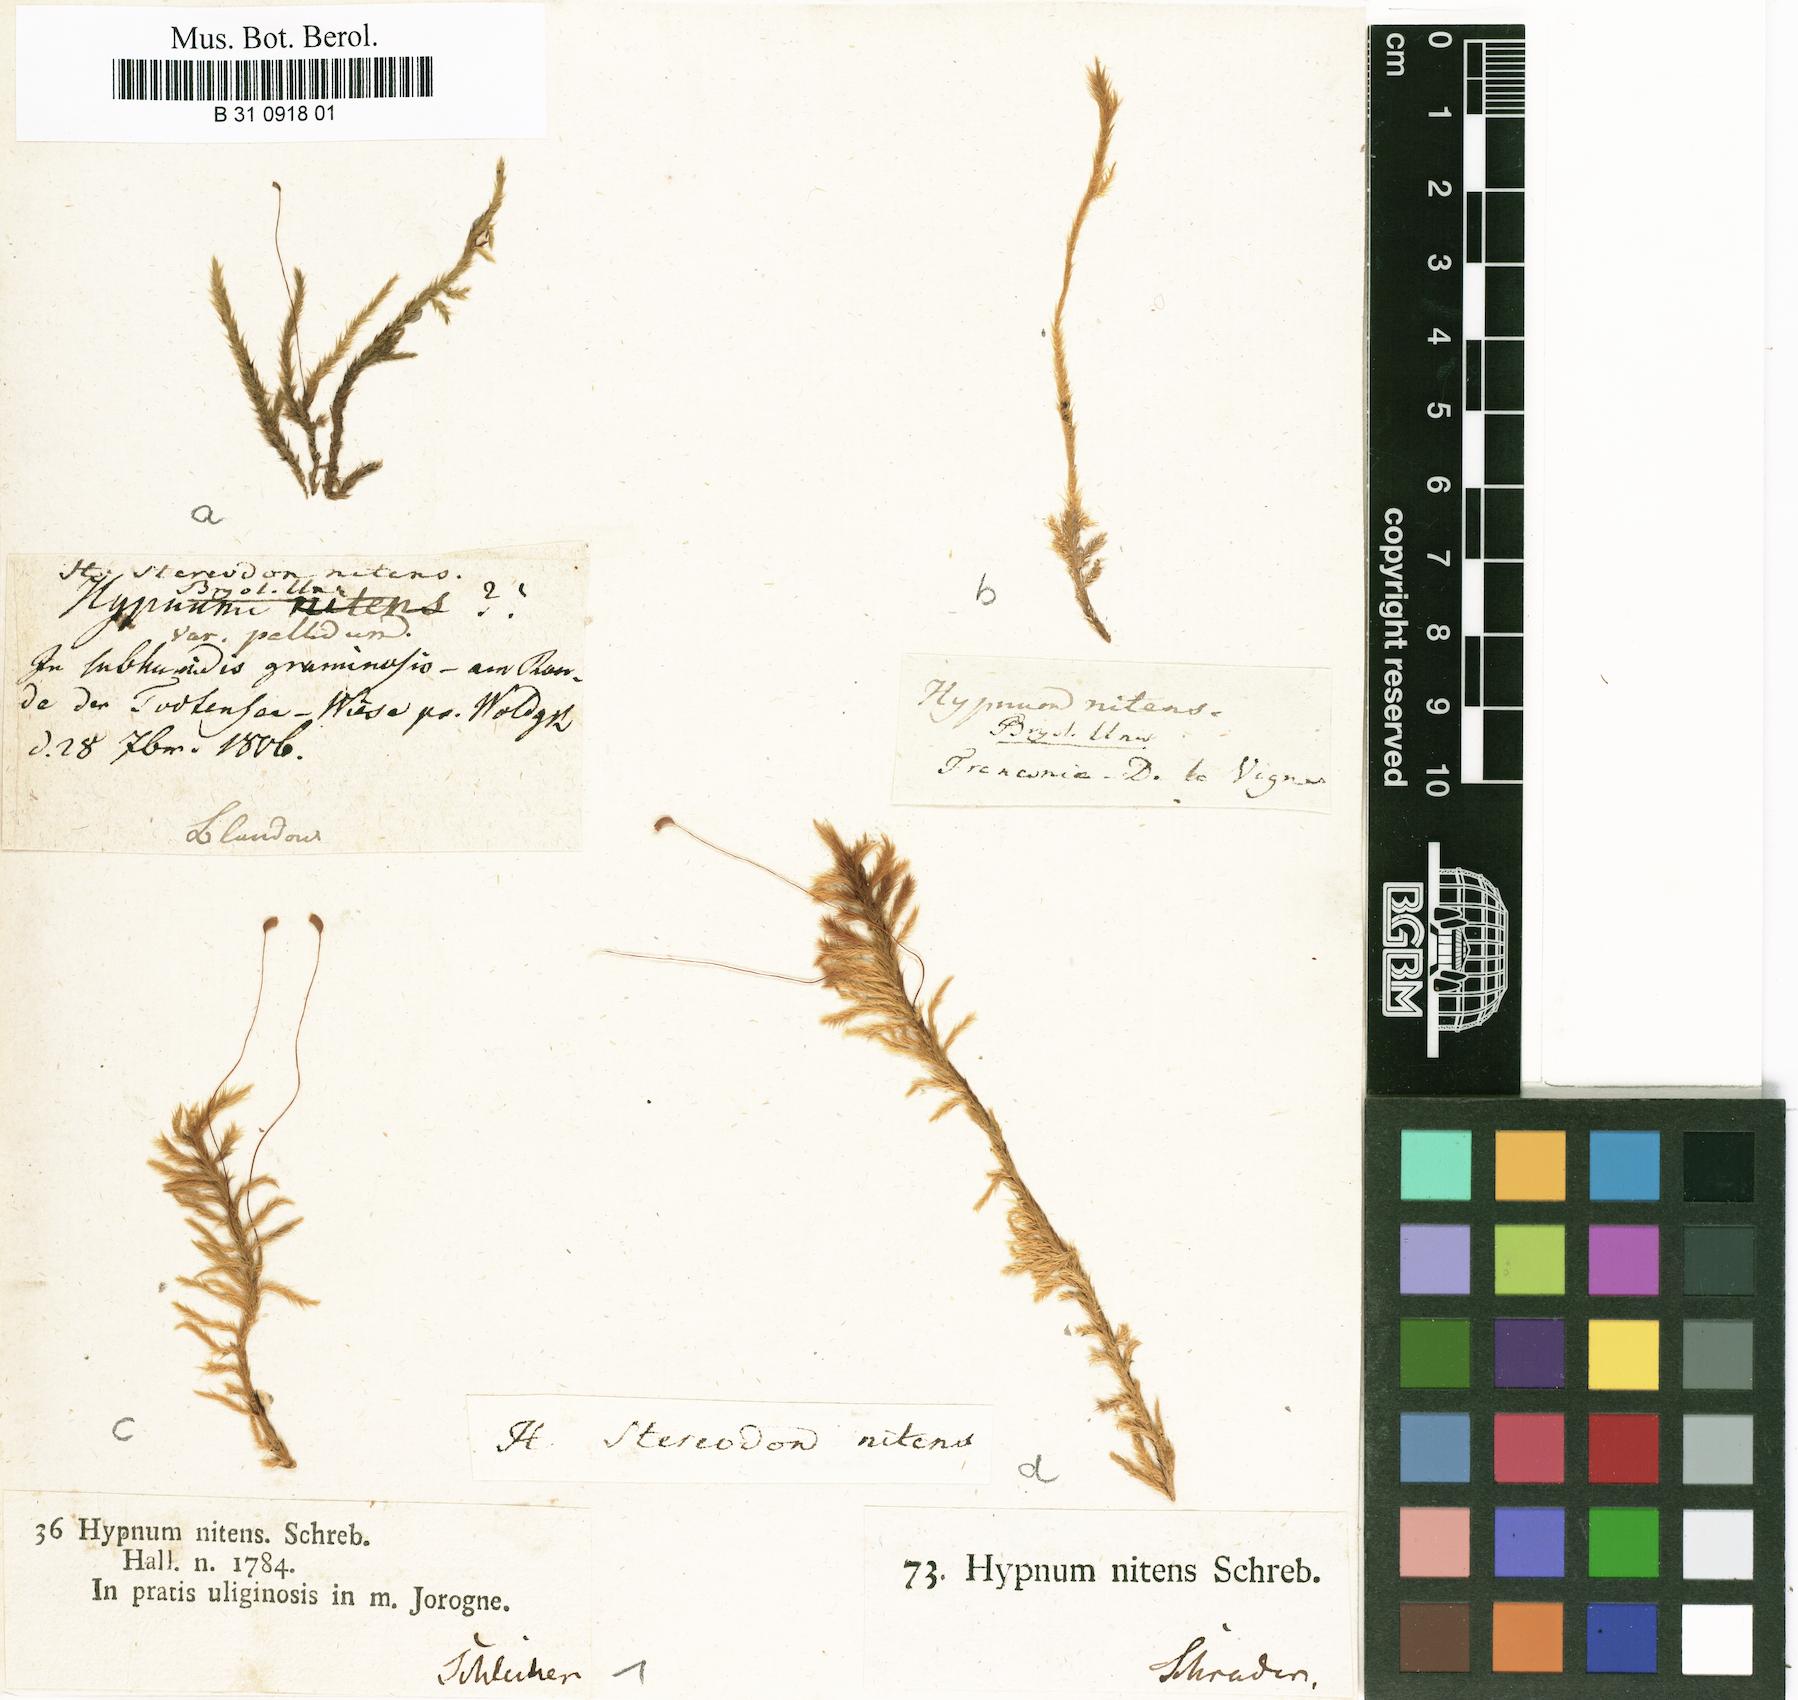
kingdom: Plantae
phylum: Bryophyta
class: Bryopsida
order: Hypnales
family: Amblystegiaceae
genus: Tomentypnum
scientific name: Tomentypnum nitens
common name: Golden fuzzy fen moss
